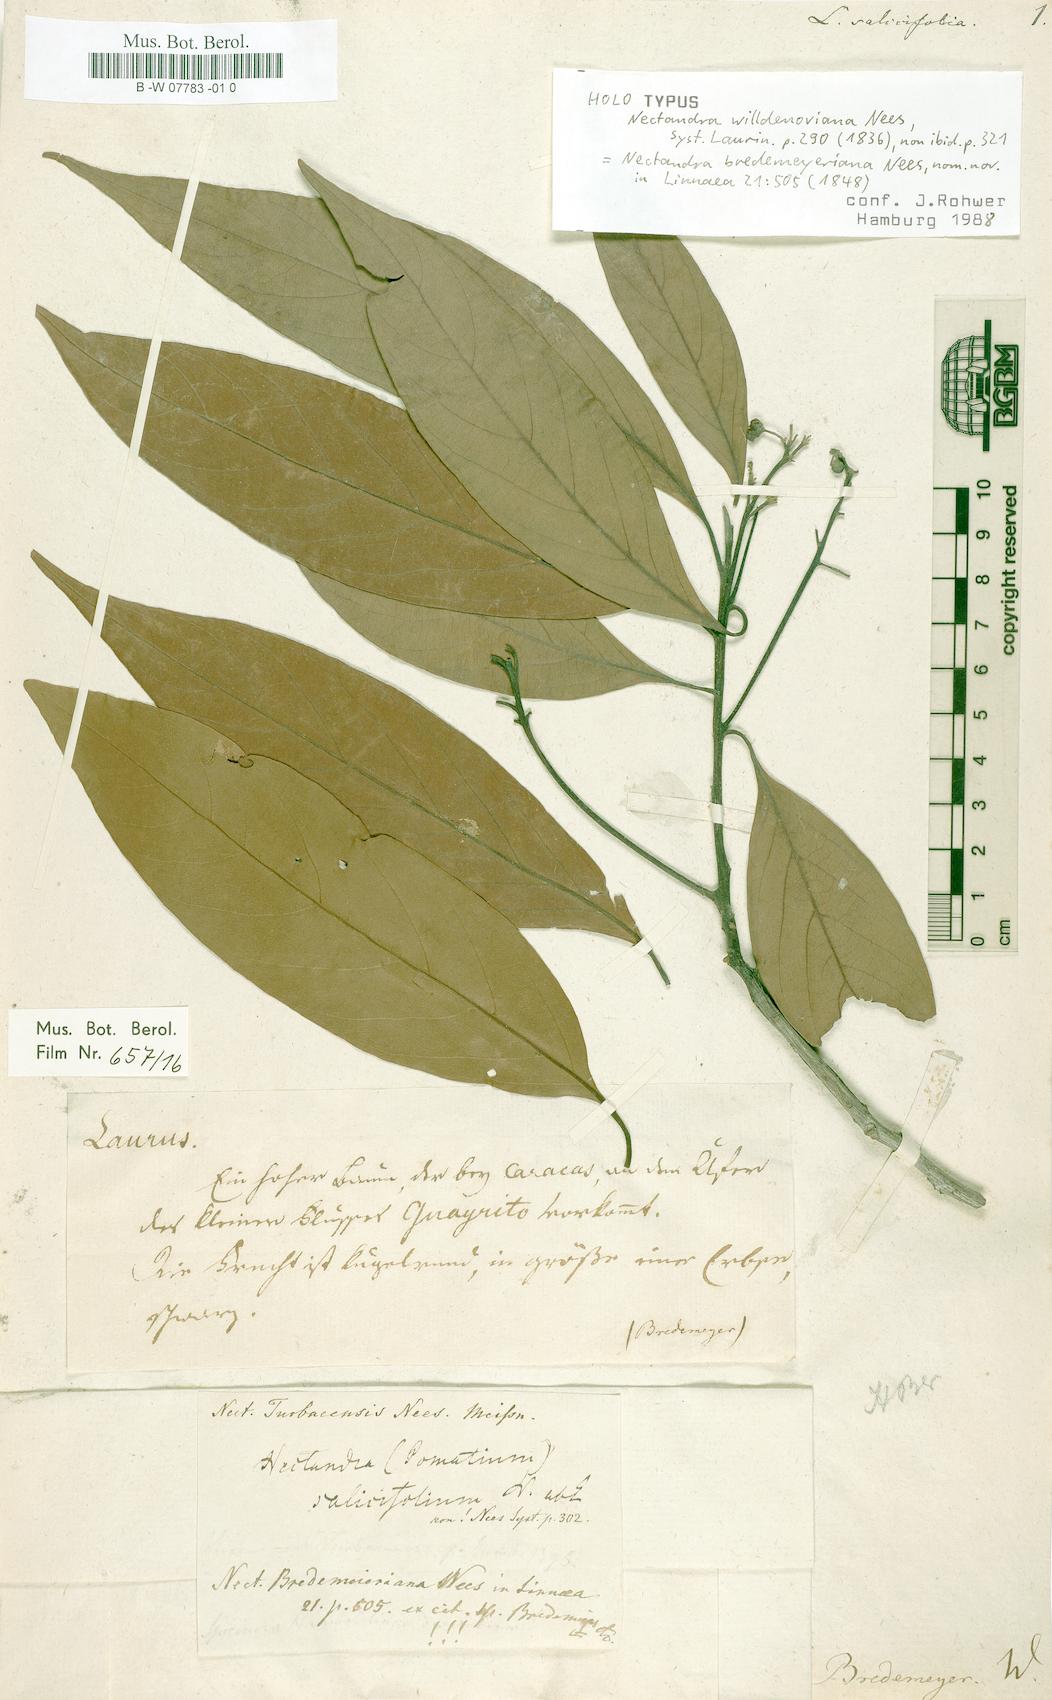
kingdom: Plantae
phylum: Tracheophyta
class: Magnoliopsida
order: Laurales
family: Lauraceae
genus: Damburneya
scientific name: Damburneya coriacea
